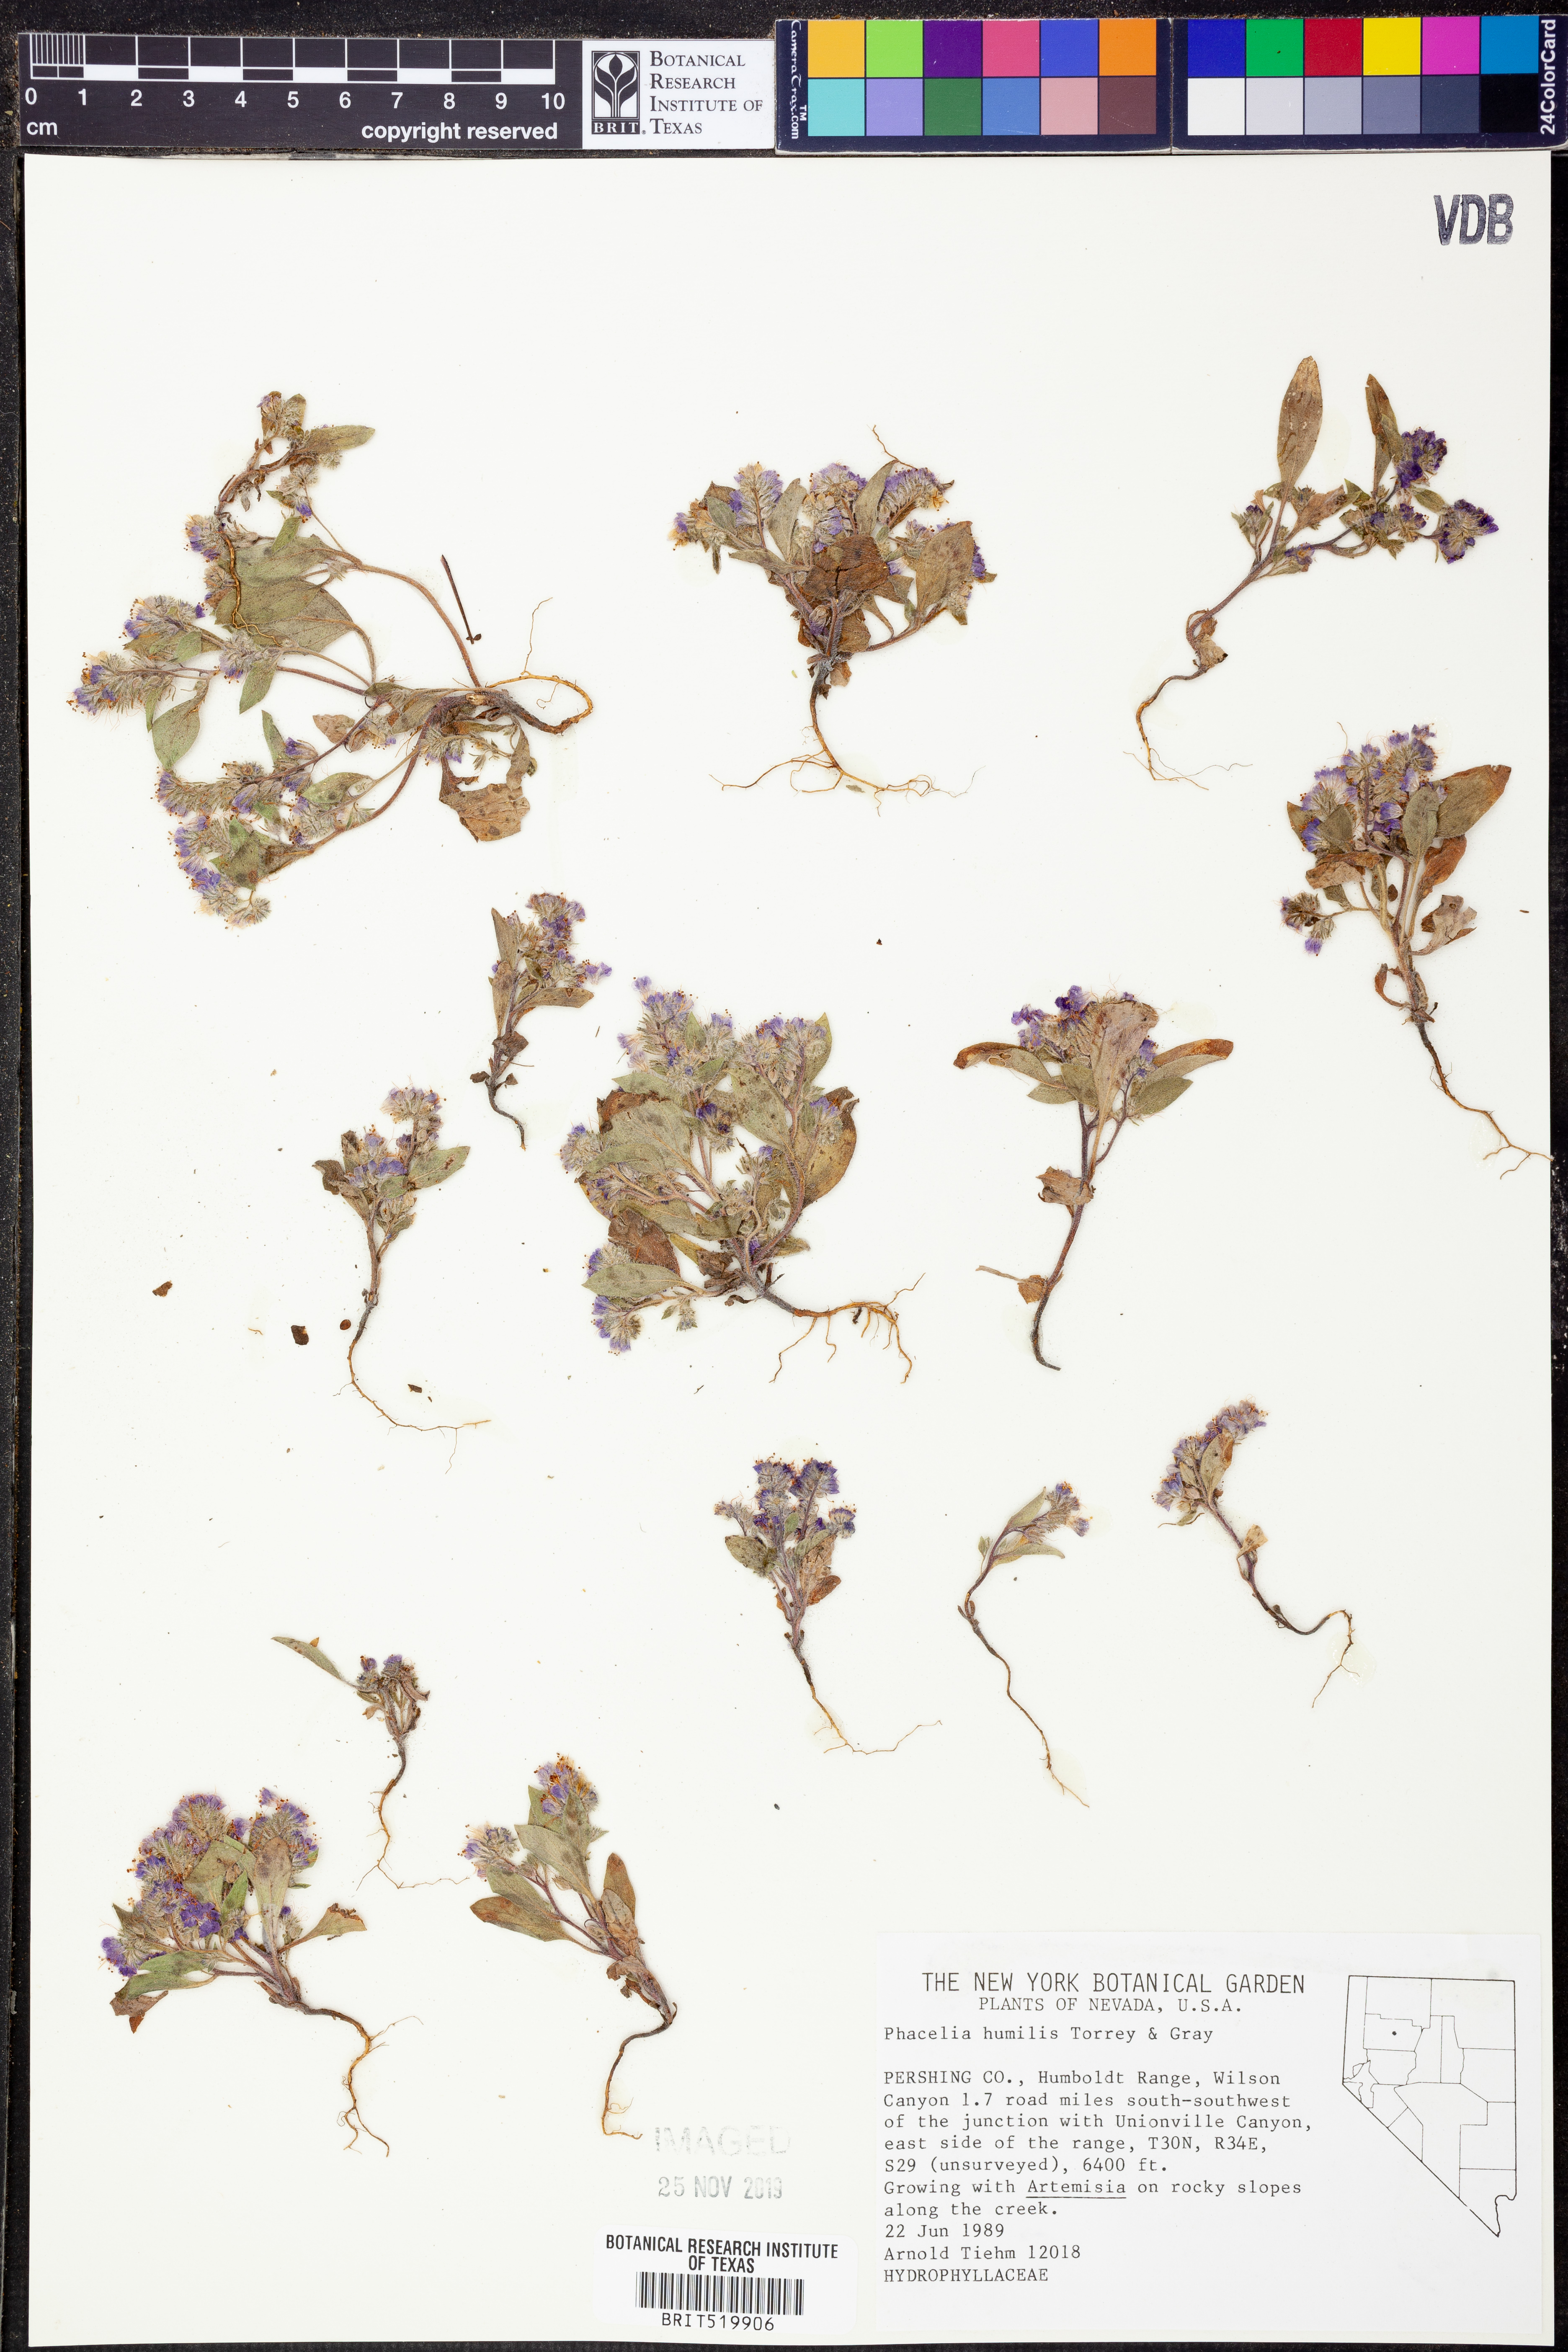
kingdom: Plantae
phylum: Tracheophyta
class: Magnoliopsida
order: Boraginales
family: Hydrophyllaceae
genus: Phacelia
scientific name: Phacelia humilis
